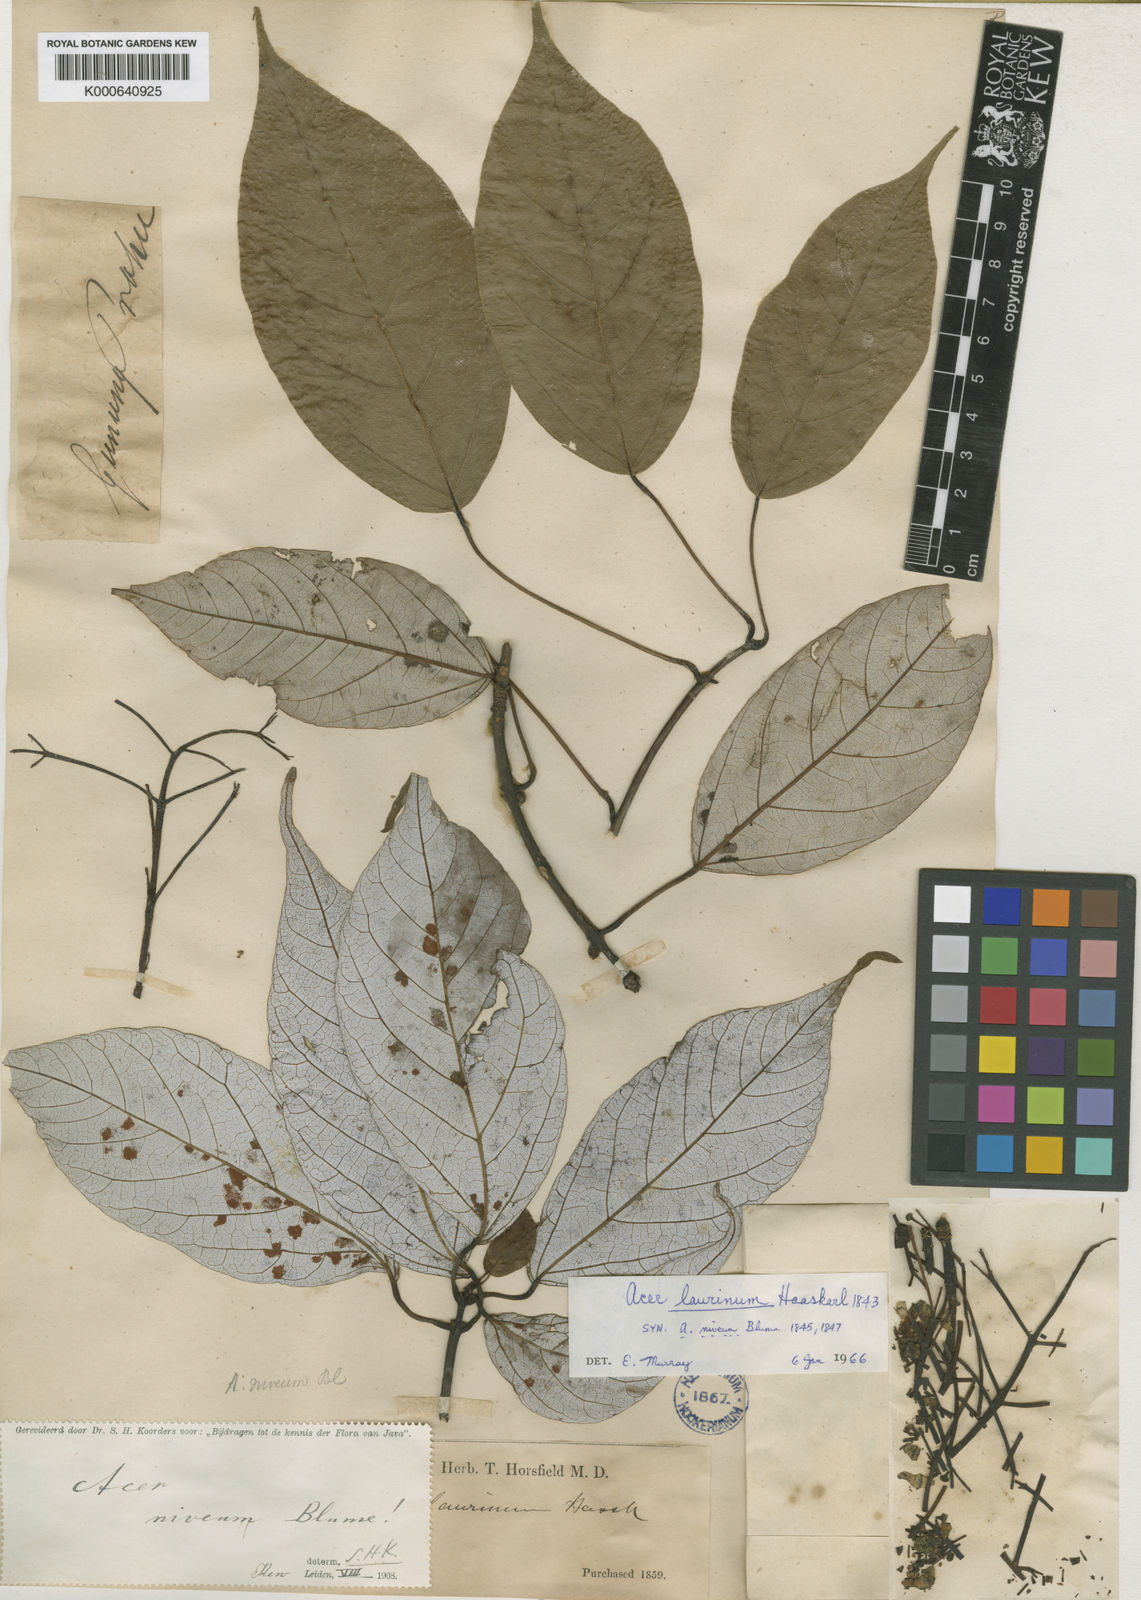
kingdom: Plantae
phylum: Tracheophyta
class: Magnoliopsida
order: Sapindales
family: Sapindaceae
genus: Acer
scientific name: Acer laurinum
